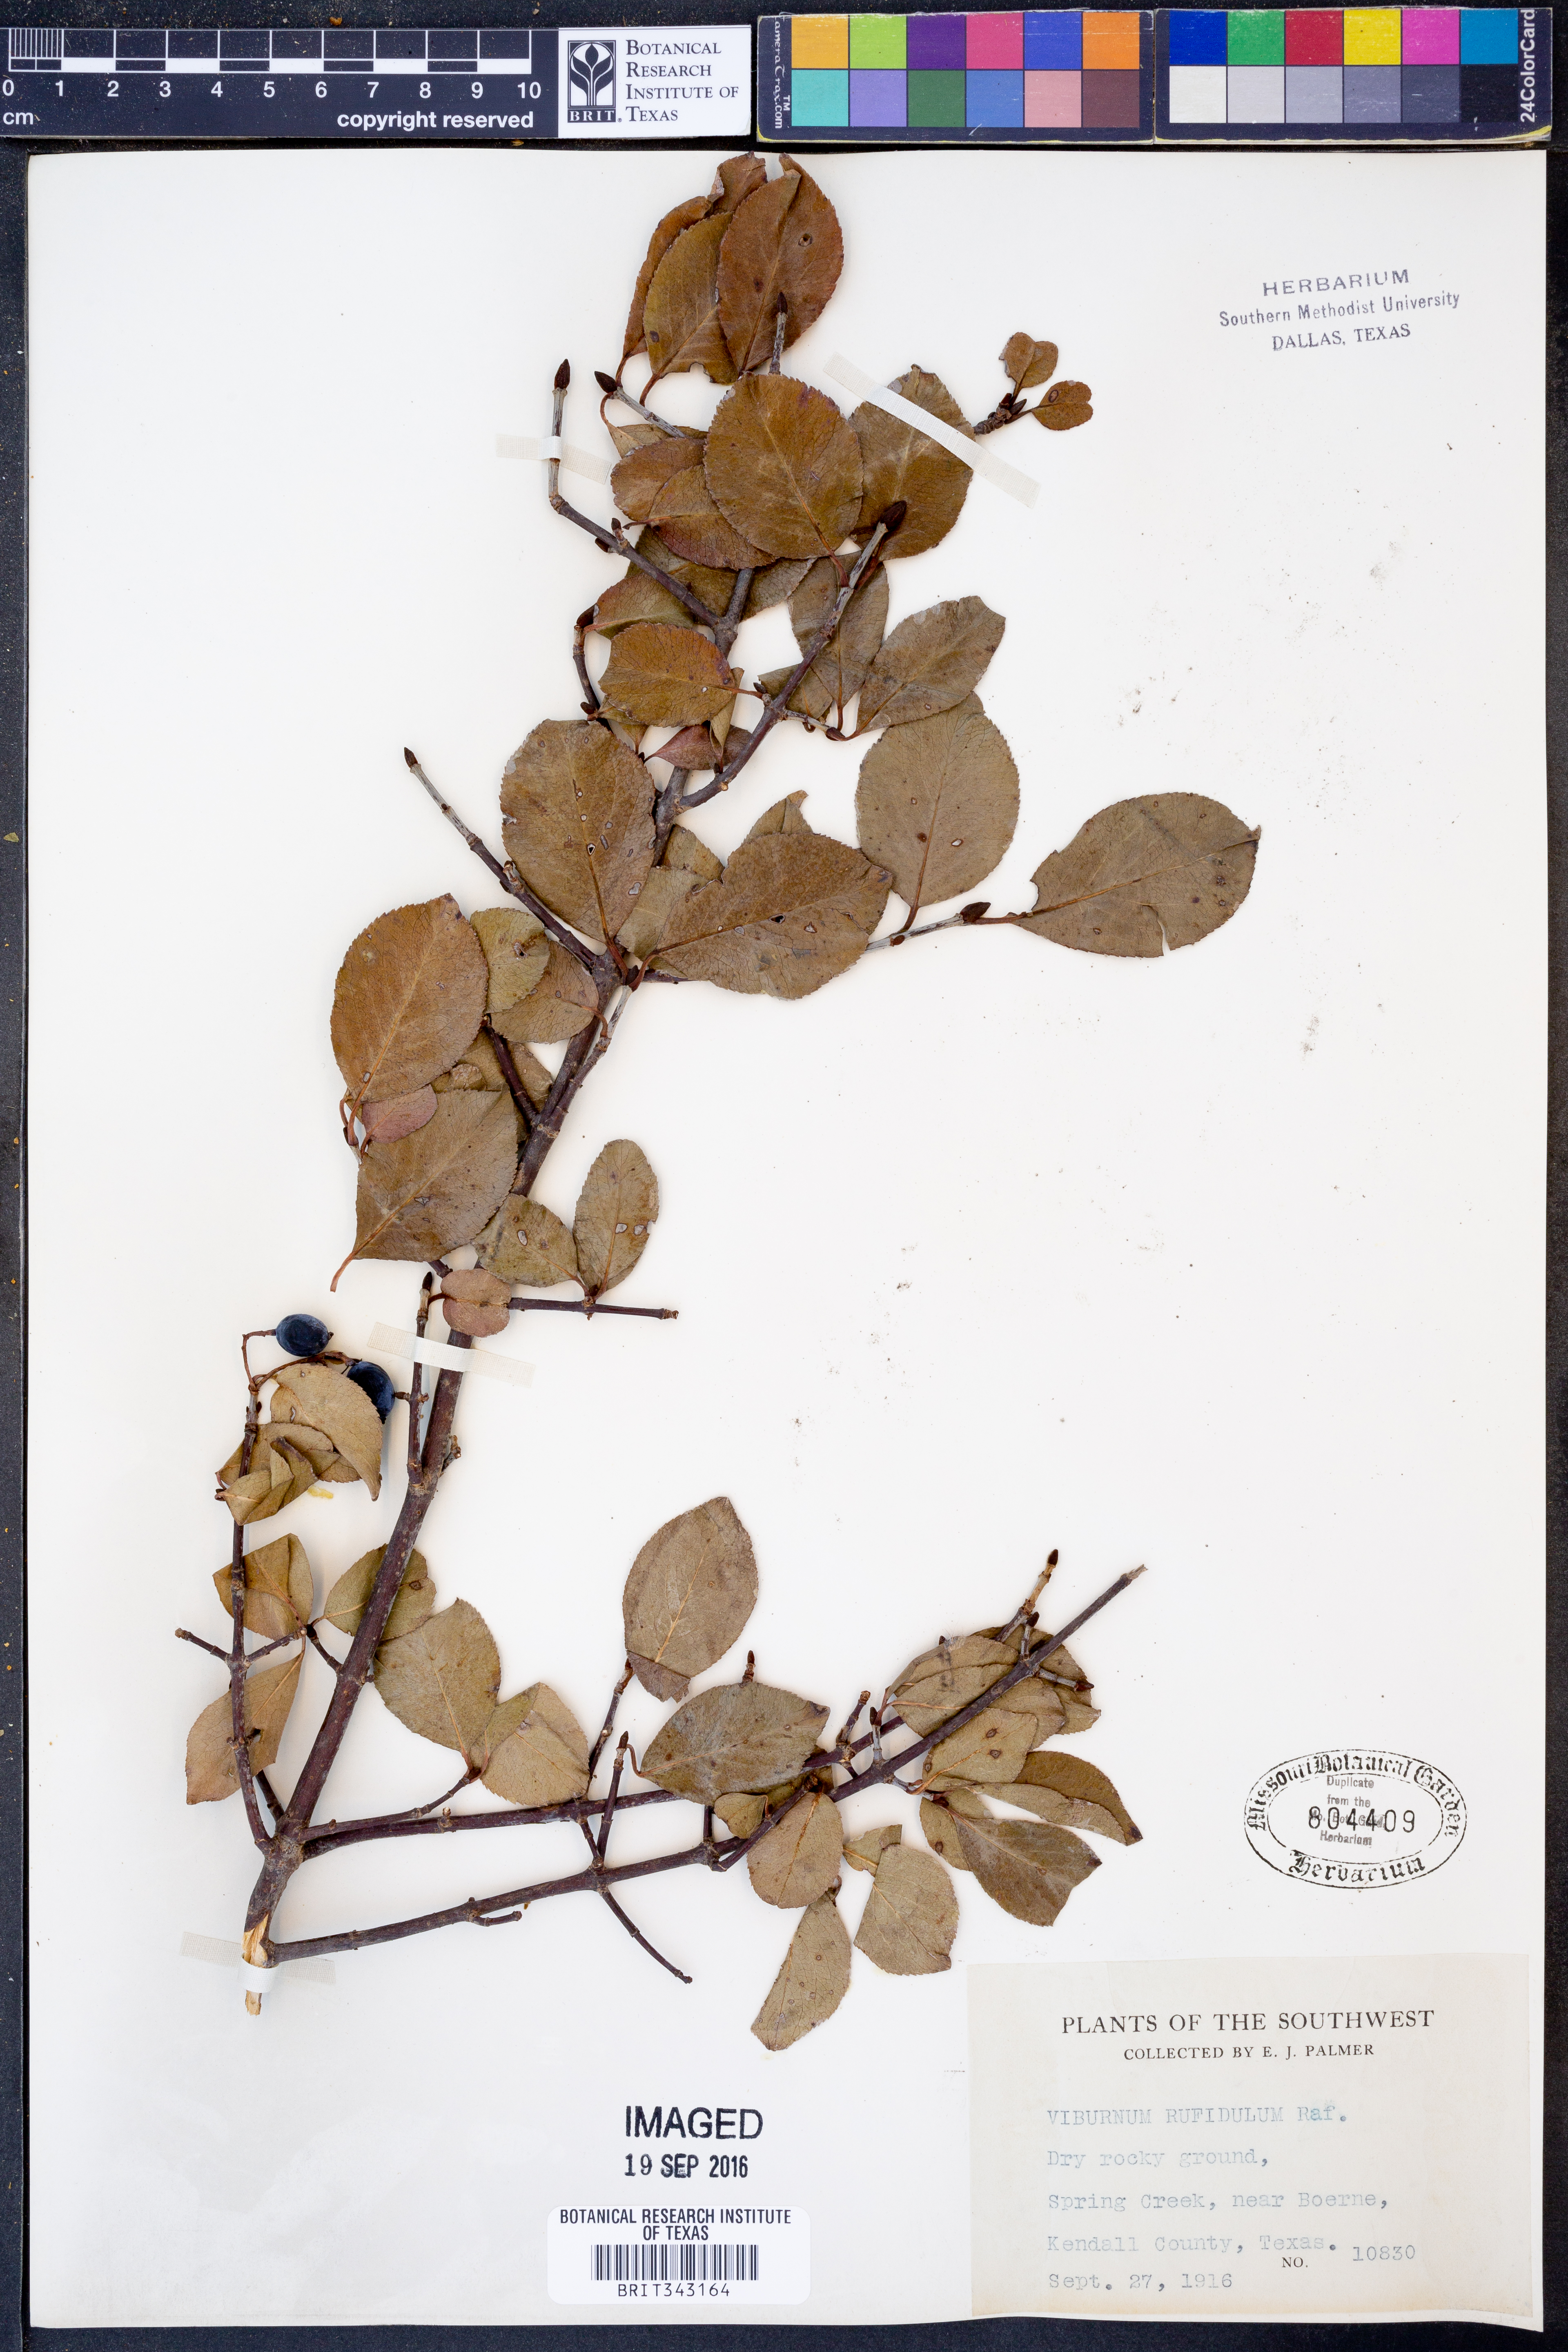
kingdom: Plantae
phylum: Tracheophyta
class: Magnoliopsida
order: Dipsacales
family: Viburnaceae
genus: Viburnum
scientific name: Viburnum rufidulum
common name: Blue haw
